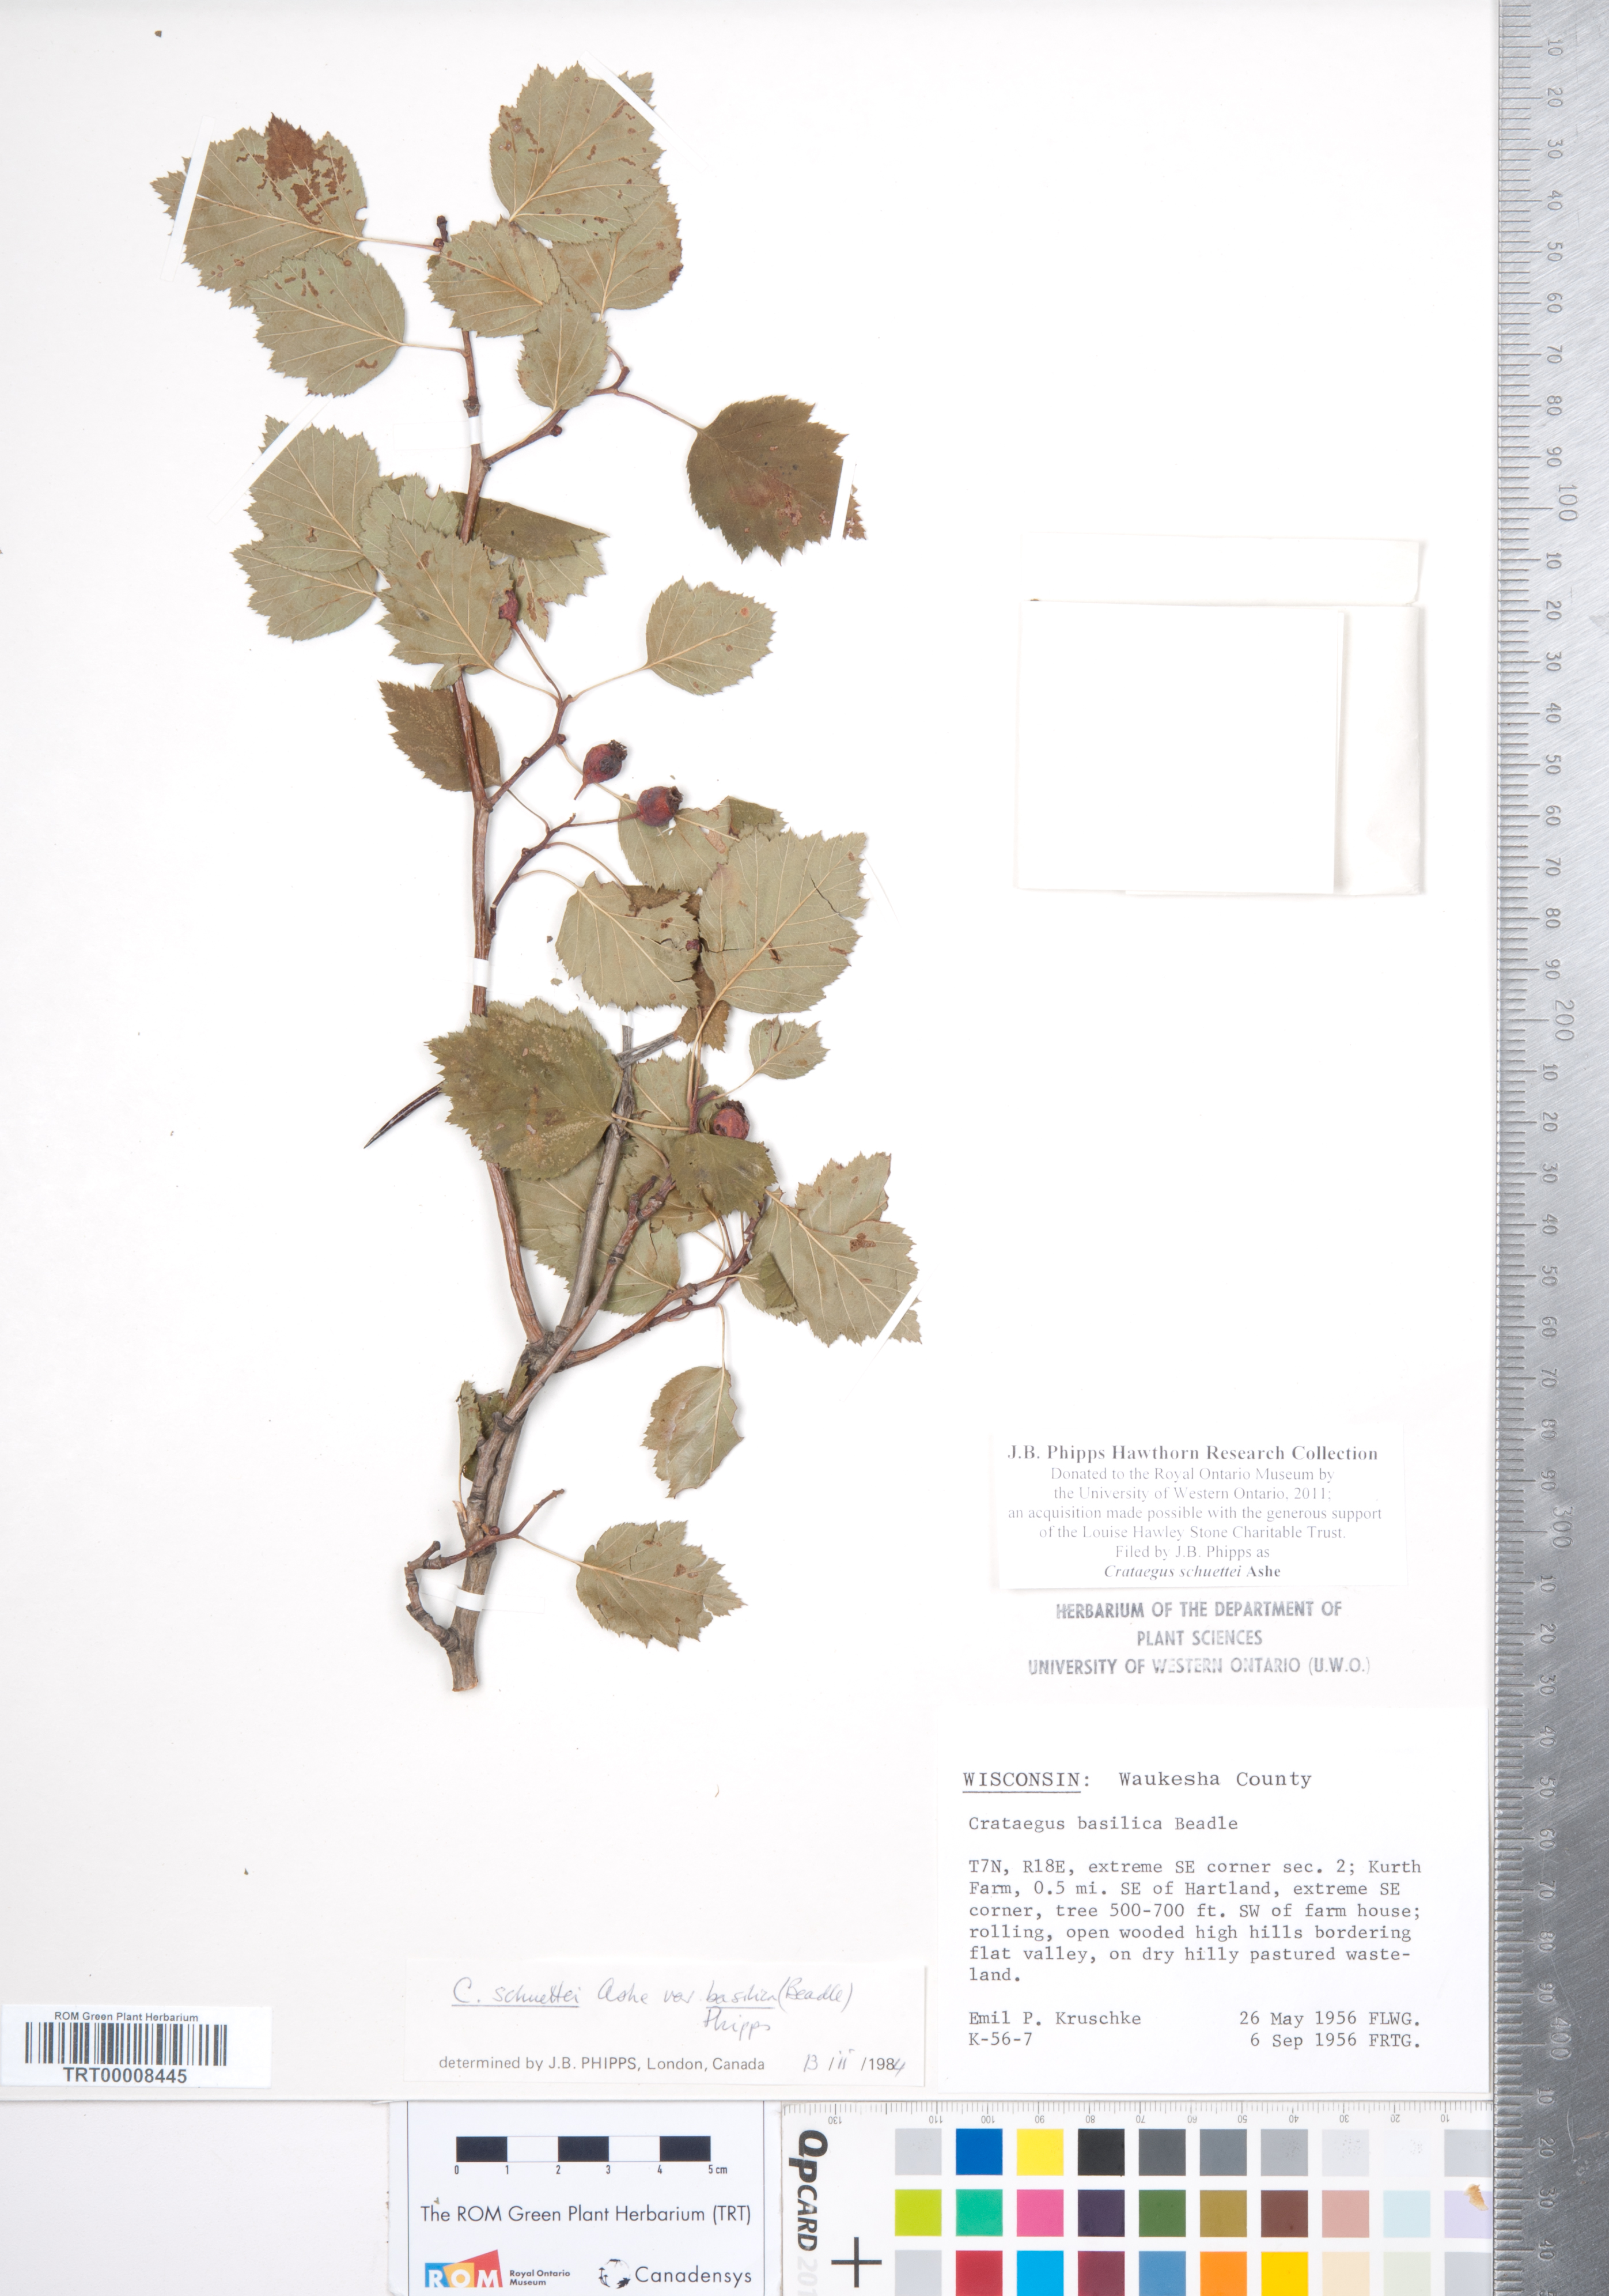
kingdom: Plantae
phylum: Tracheophyta
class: Magnoliopsida
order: Rosales
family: Rosaceae
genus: Crataegus
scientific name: Crataegus schuettei
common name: Schuette's hawthorn
